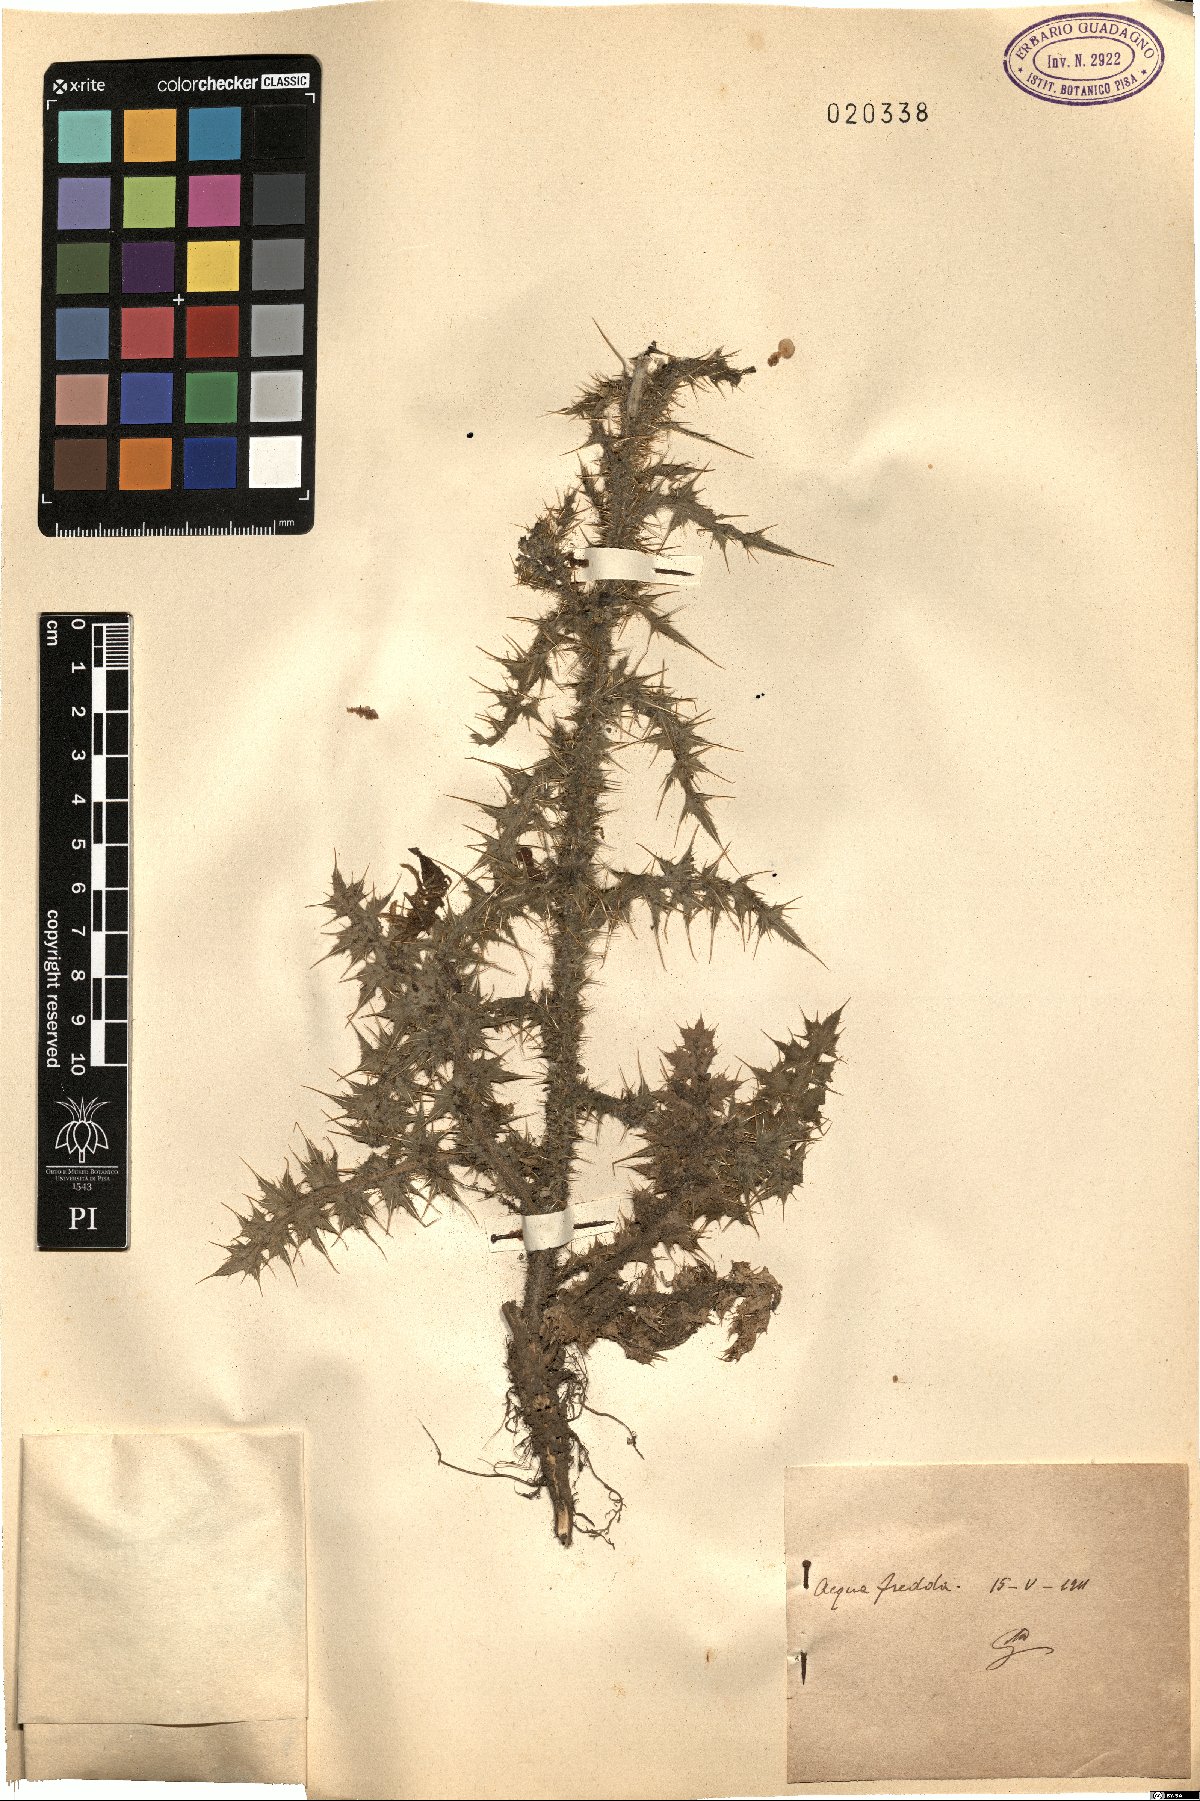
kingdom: Plantae
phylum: Tracheophyta
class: Magnoliopsida
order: Asterales
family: Asteraceae
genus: Carduus
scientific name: Carduus
